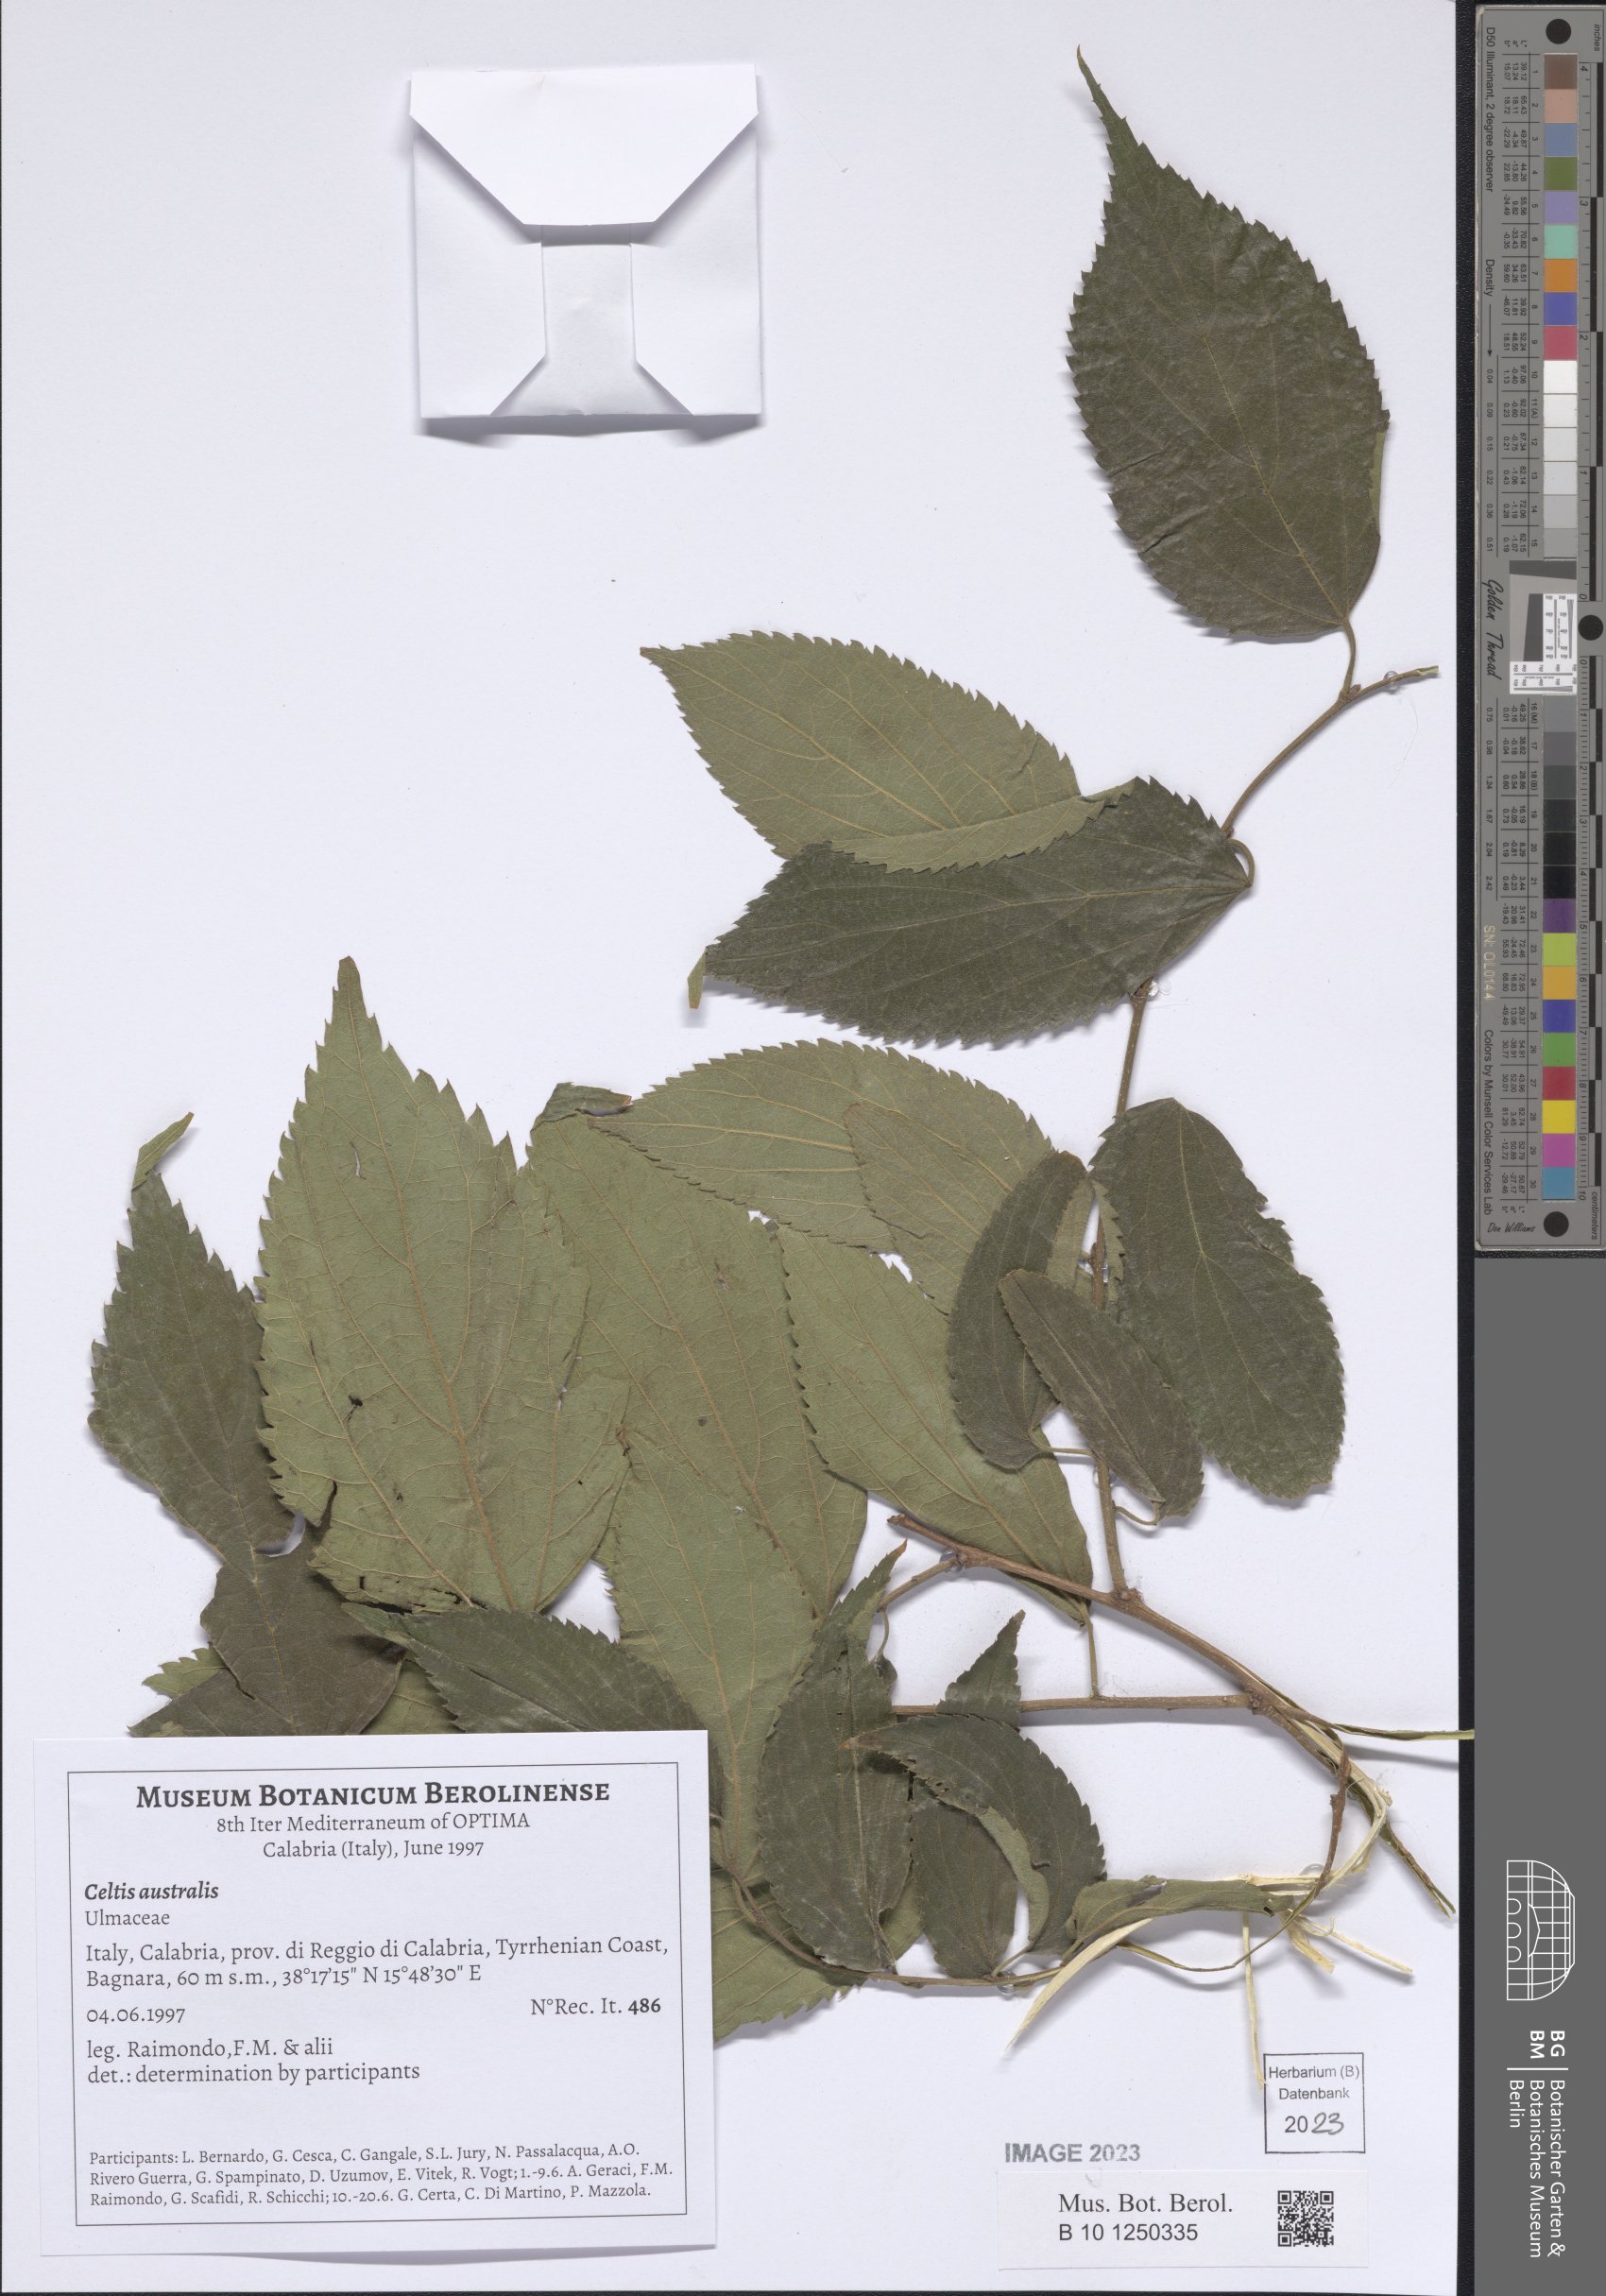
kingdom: Plantae
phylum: Tracheophyta
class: Magnoliopsida
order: Rosales
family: Cannabaceae
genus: Celtis
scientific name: Celtis australis
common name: European hackberry
